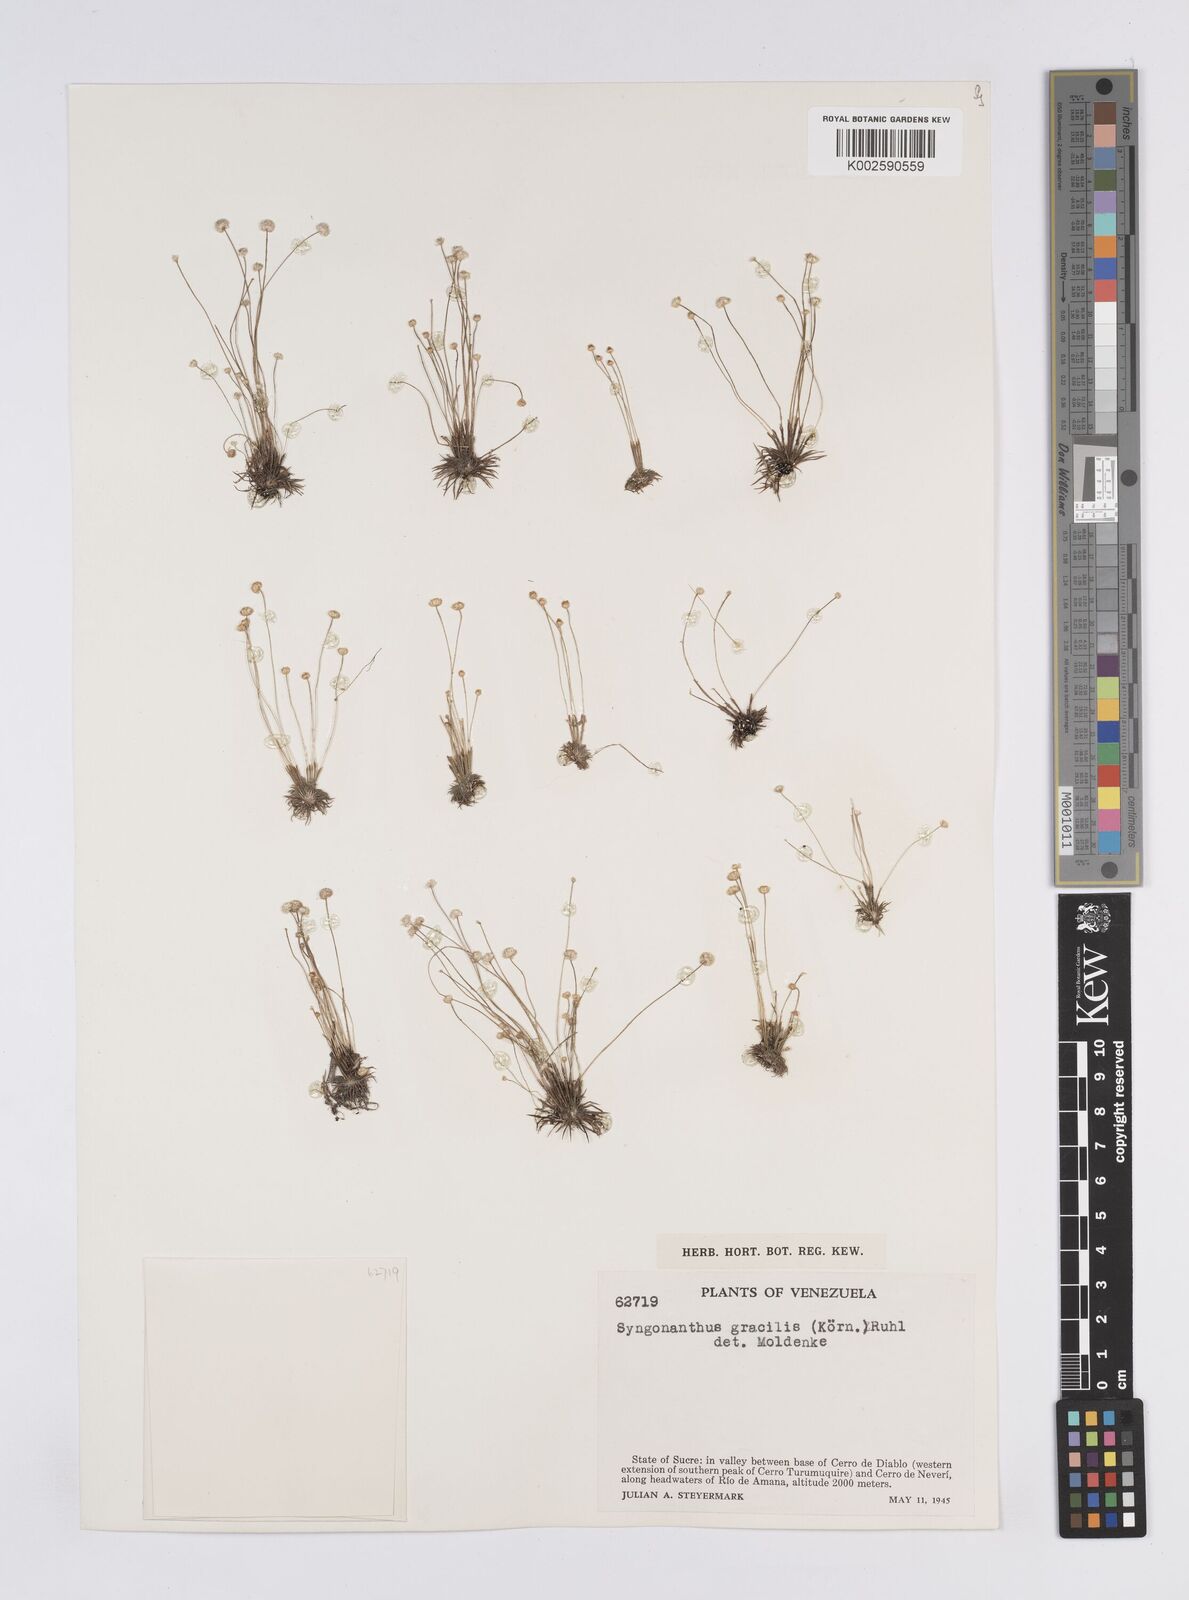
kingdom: Plantae
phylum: Tracheophyta
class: Liliopsida
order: Poales
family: Eriocaulaceae
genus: Syngonanthus
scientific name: Syngonanthus
